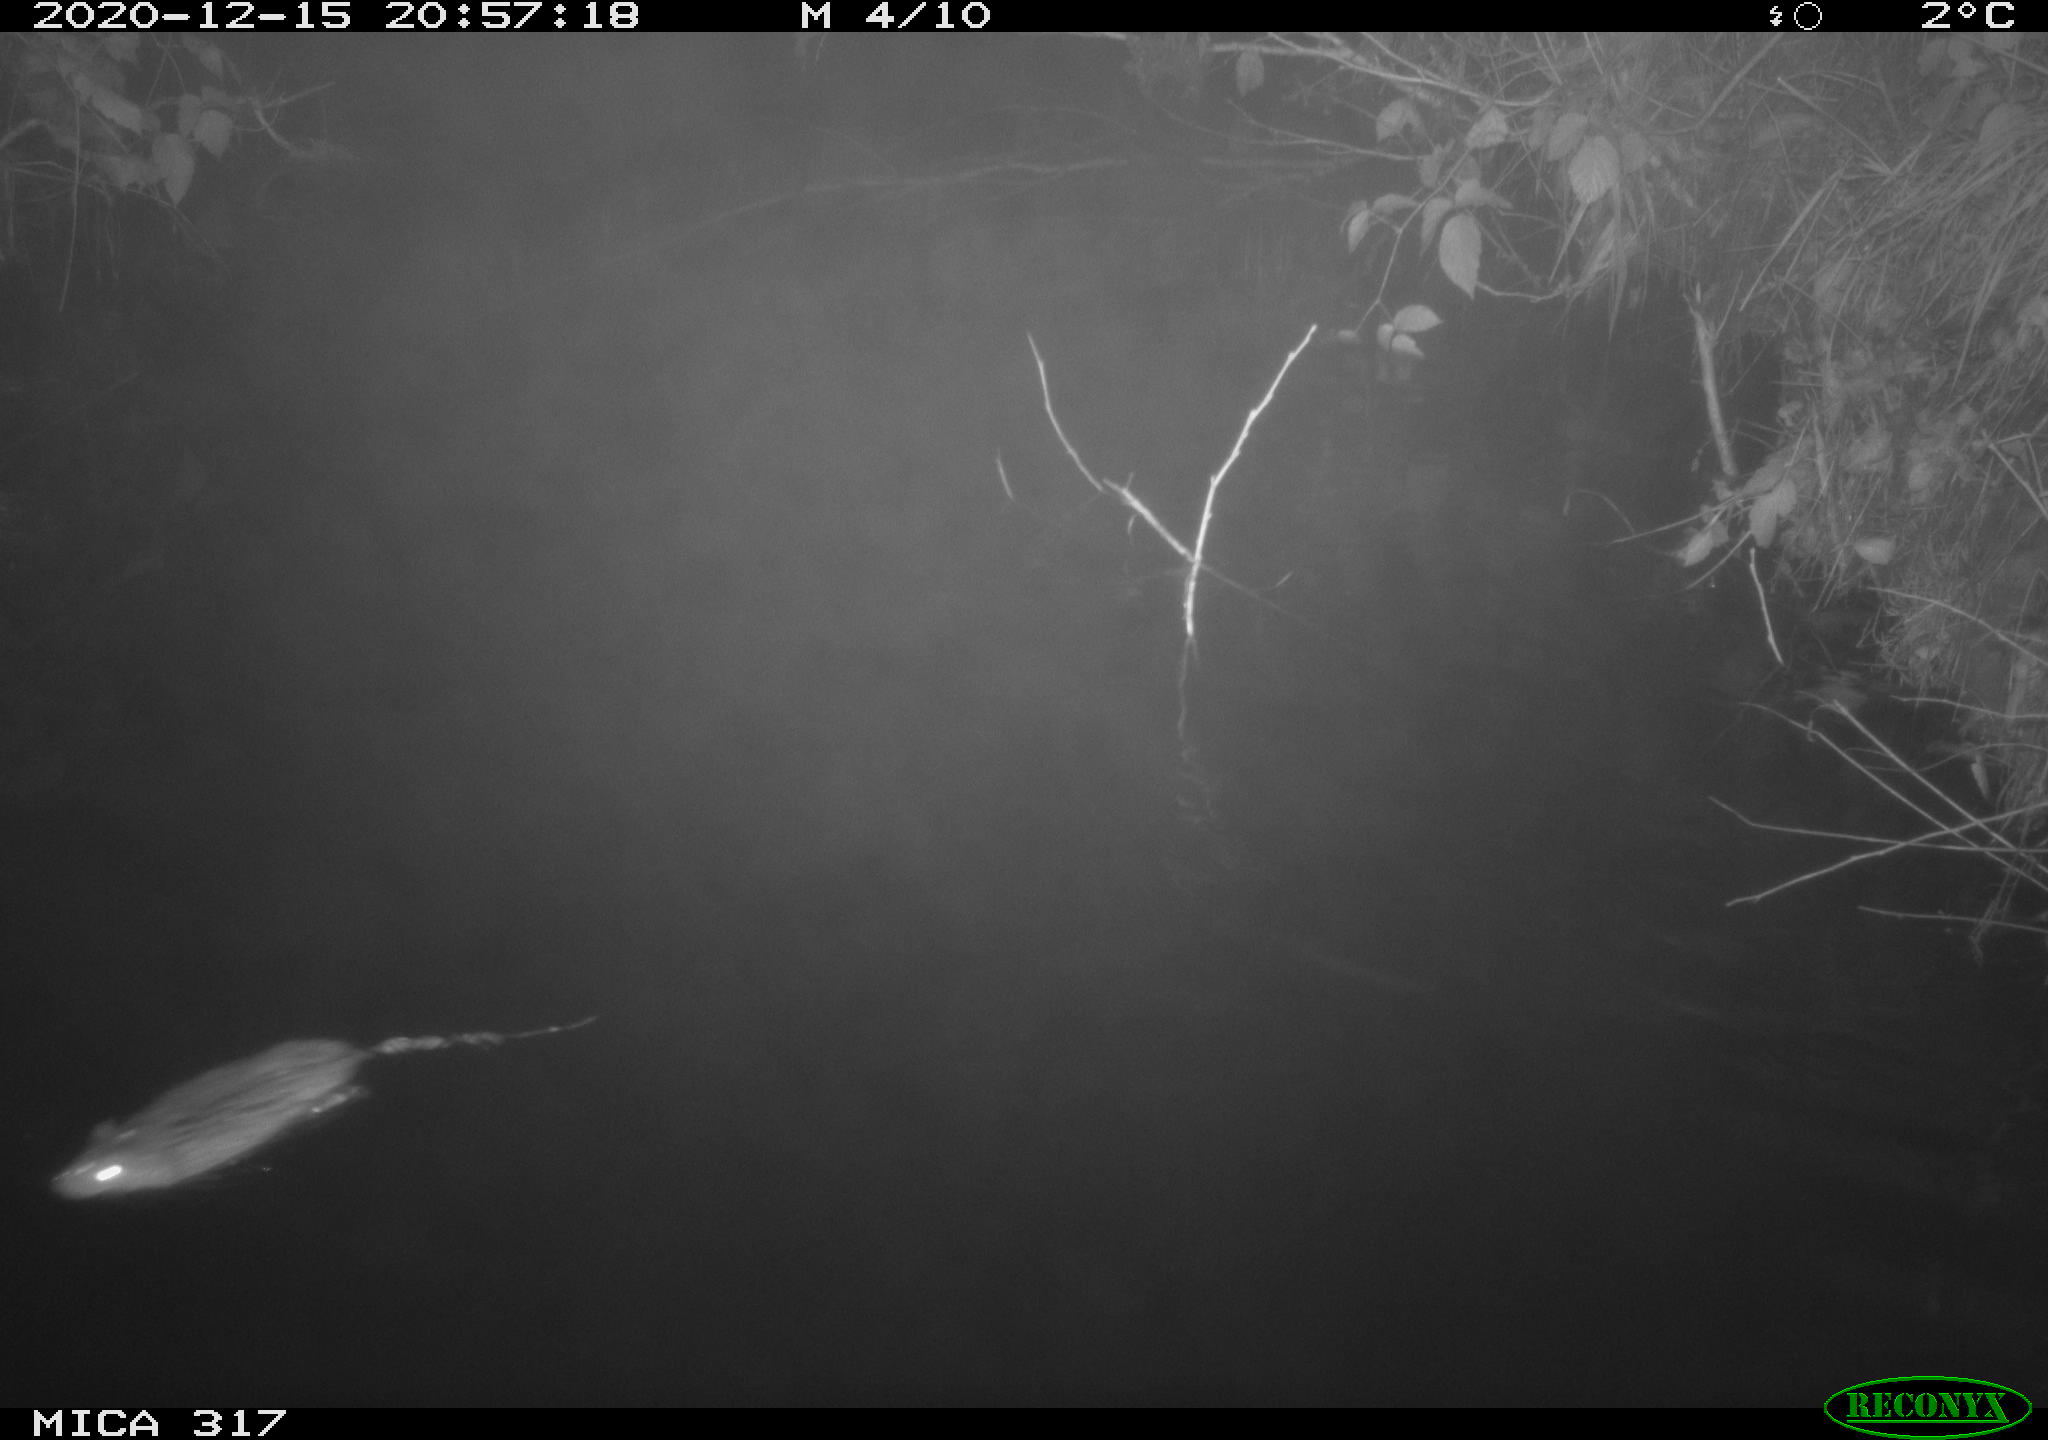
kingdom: Animalia
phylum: Chordata
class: Mammalia
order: Rodentia
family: Muridae
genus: Rattus
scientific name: Rattus norvegicus
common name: Brown rat
